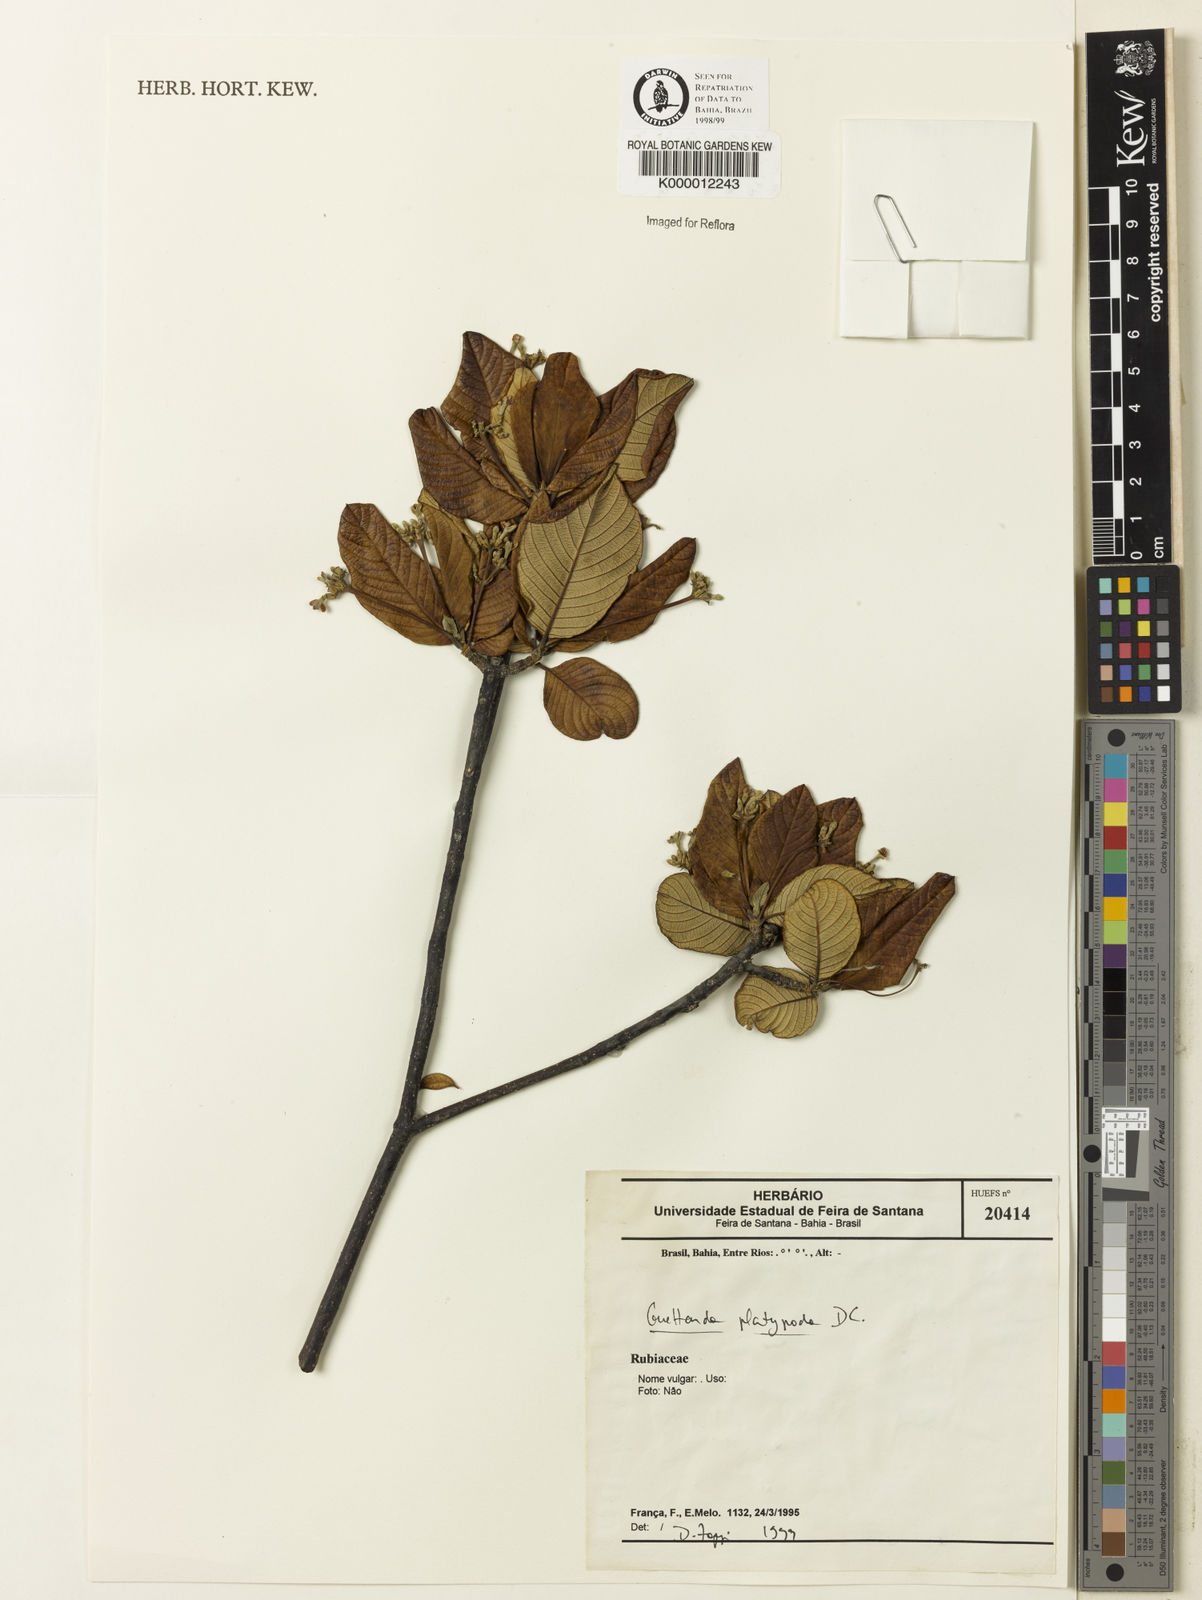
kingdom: Plantae
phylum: Tracheophyta
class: Magnoliopsida
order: Gentianales
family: Rubiaceae
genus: Guettarda
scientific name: Guettarda platypoda
